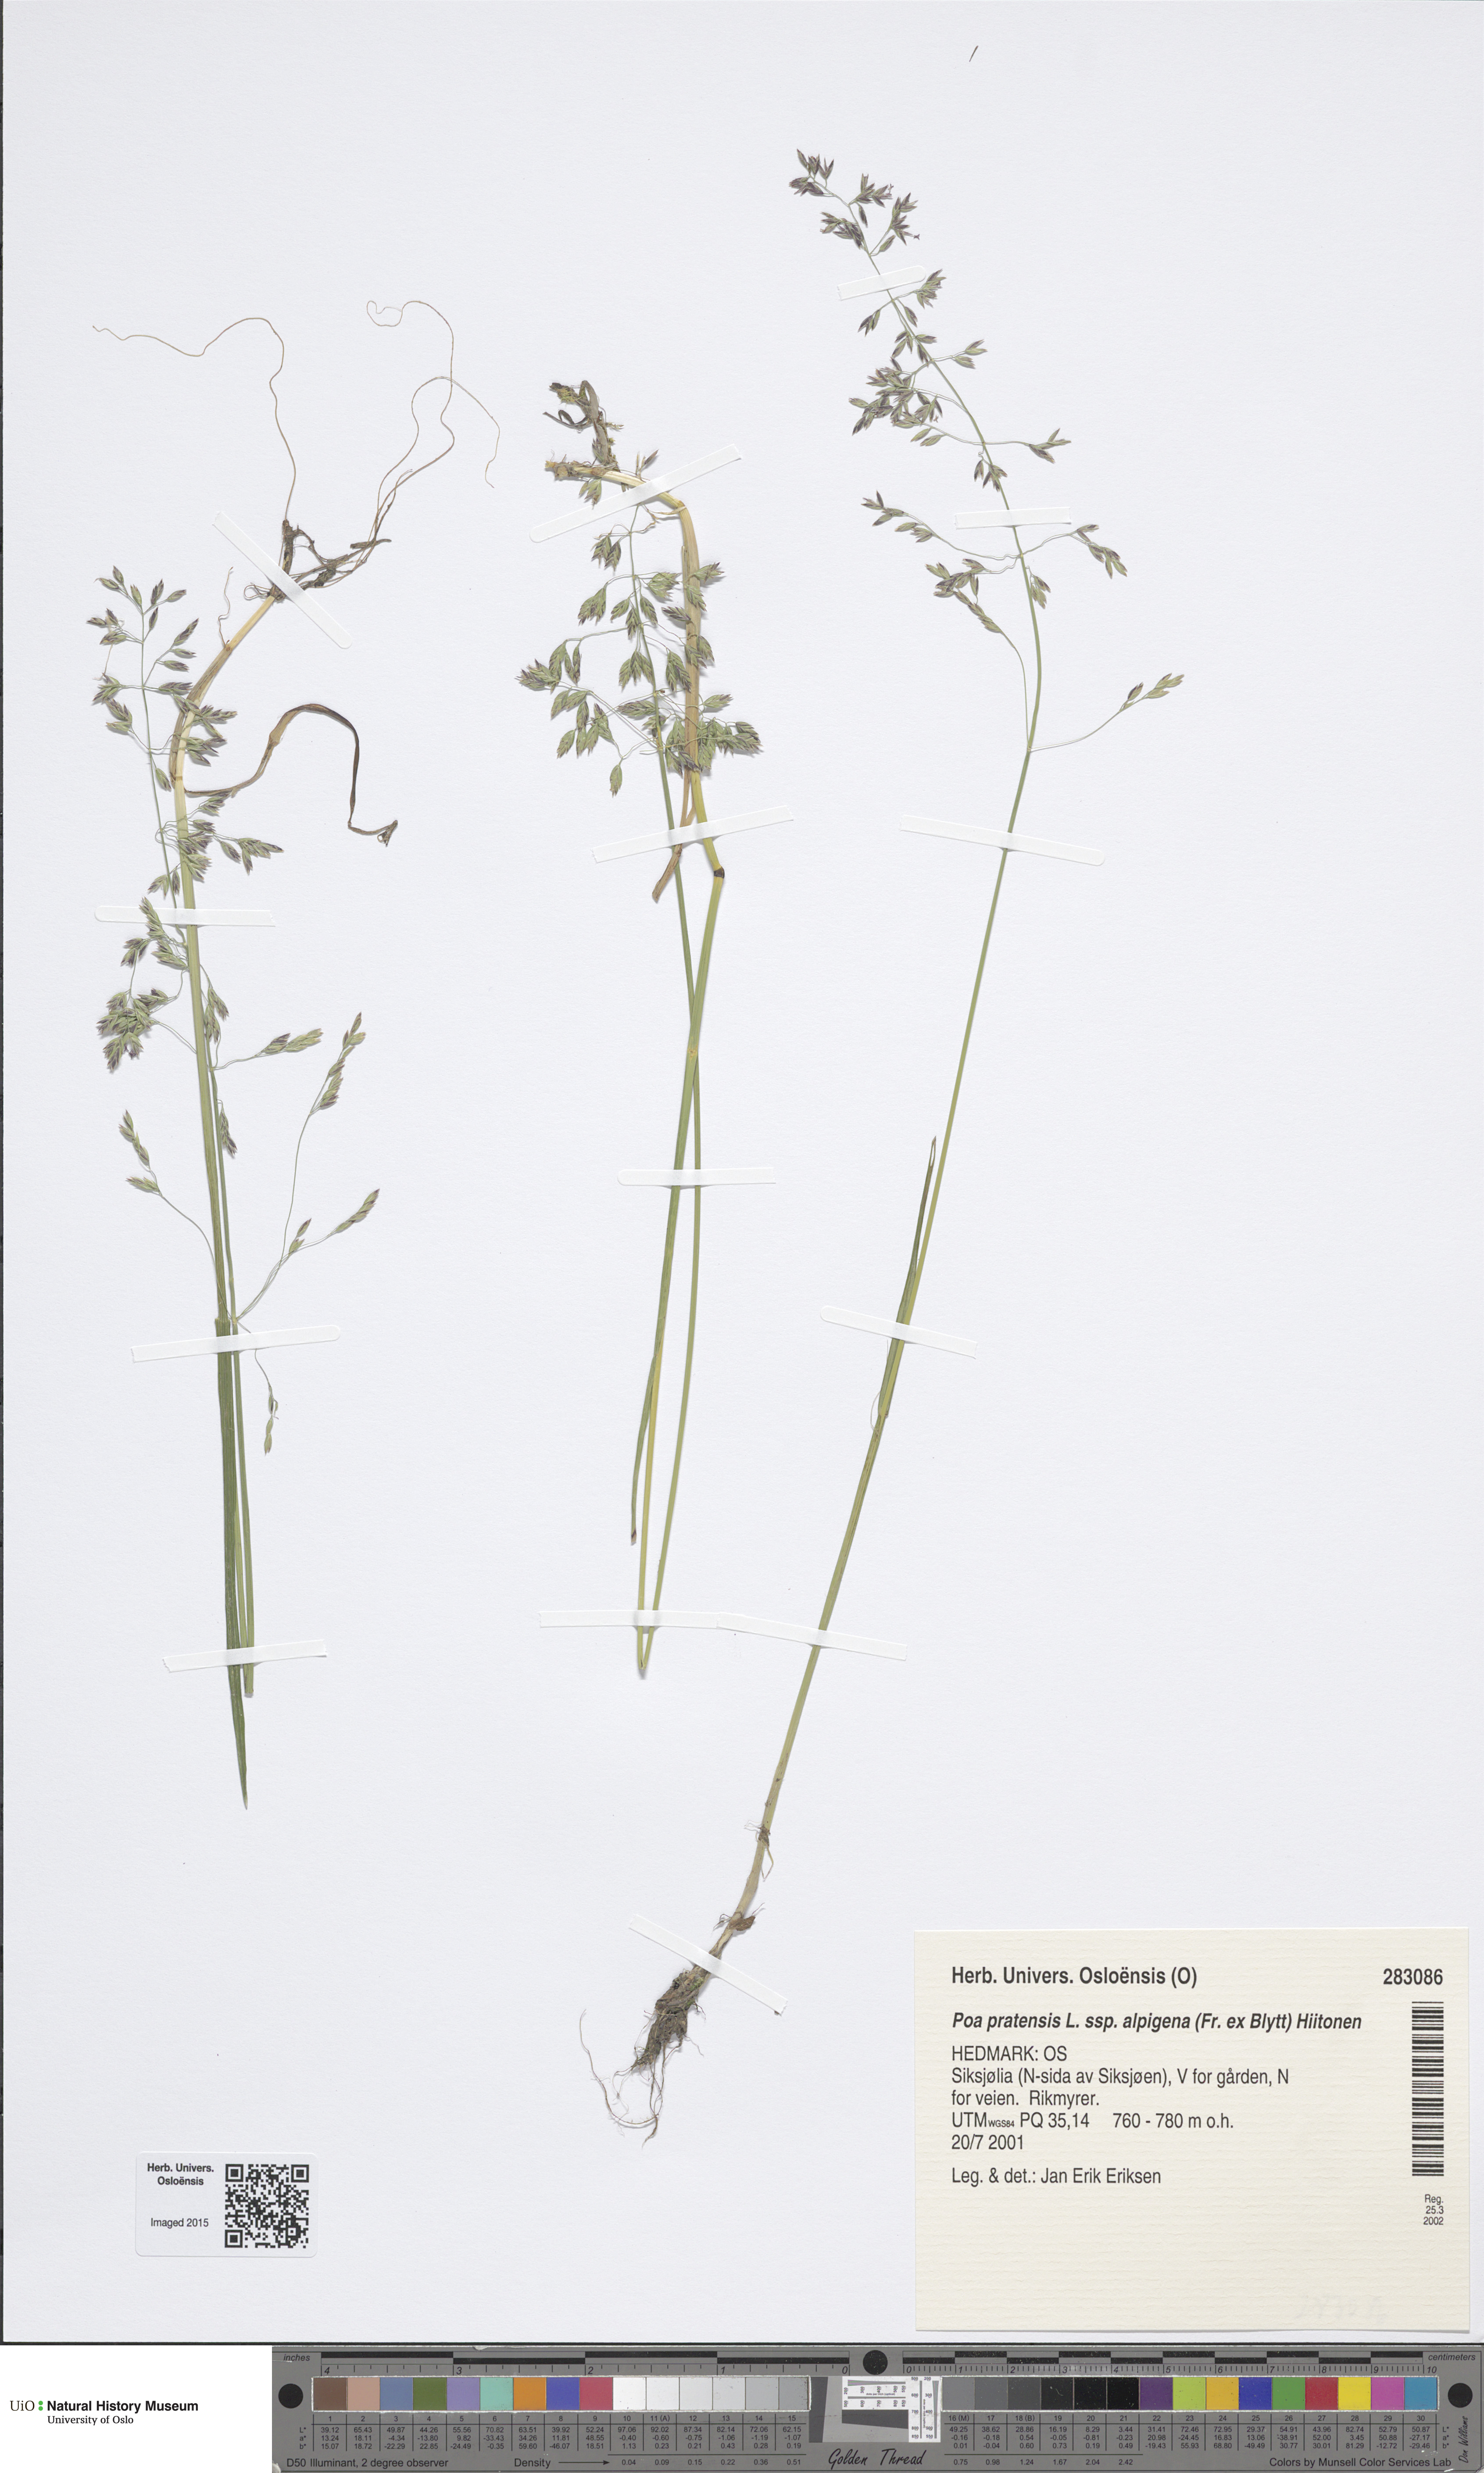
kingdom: Plantae
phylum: Tracheophyta
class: Liliopsida
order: Poales
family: Poaceae
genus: Poa
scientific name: Poa alpigena
